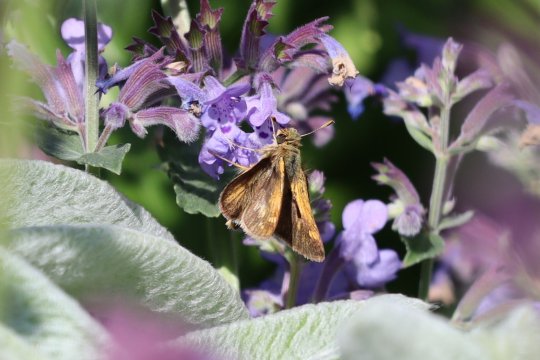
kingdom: Animalia
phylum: Arthropoda
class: Insecta
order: Lepidoptera
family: Hesperiidae
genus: Polites
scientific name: Polites coras
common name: Peck's Skipper
